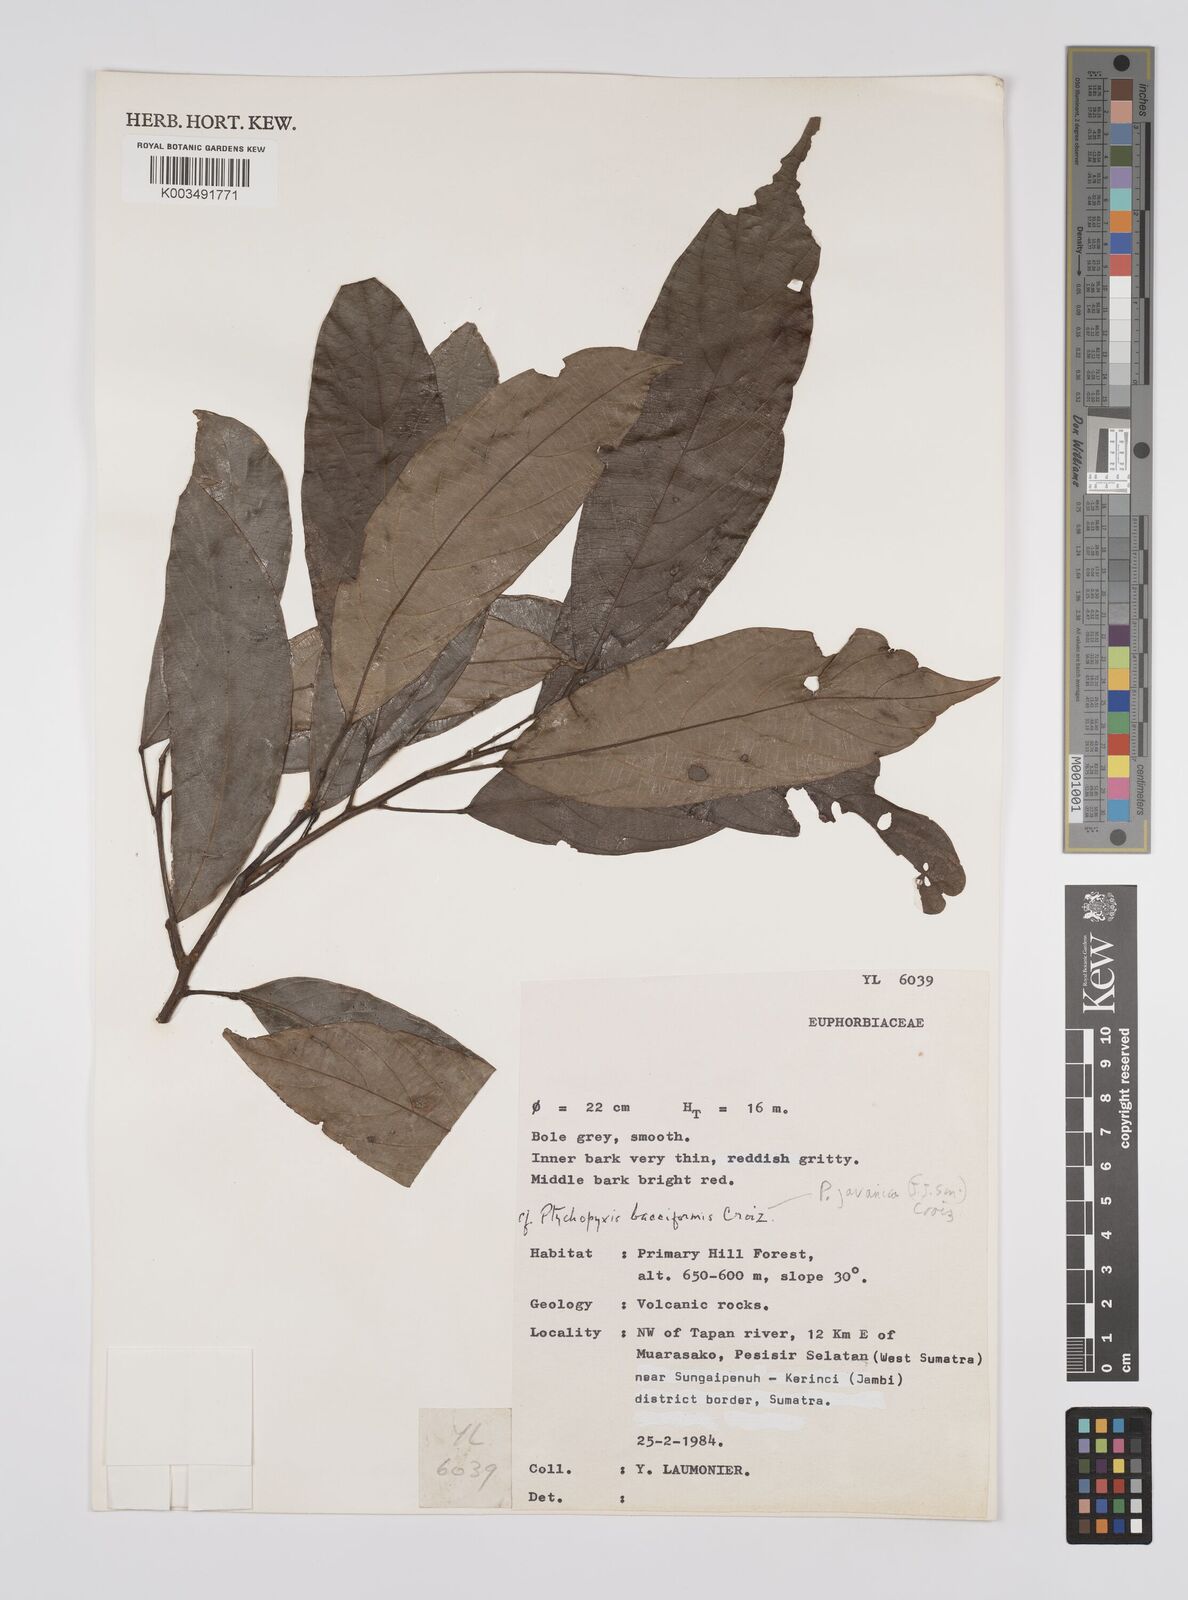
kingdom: Plantae
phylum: Tracheophyta
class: Magnoliopsida
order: Malpighiales
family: Euphorbiaceae
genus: Ptychopyxis
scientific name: Ptychopyxis javanica
